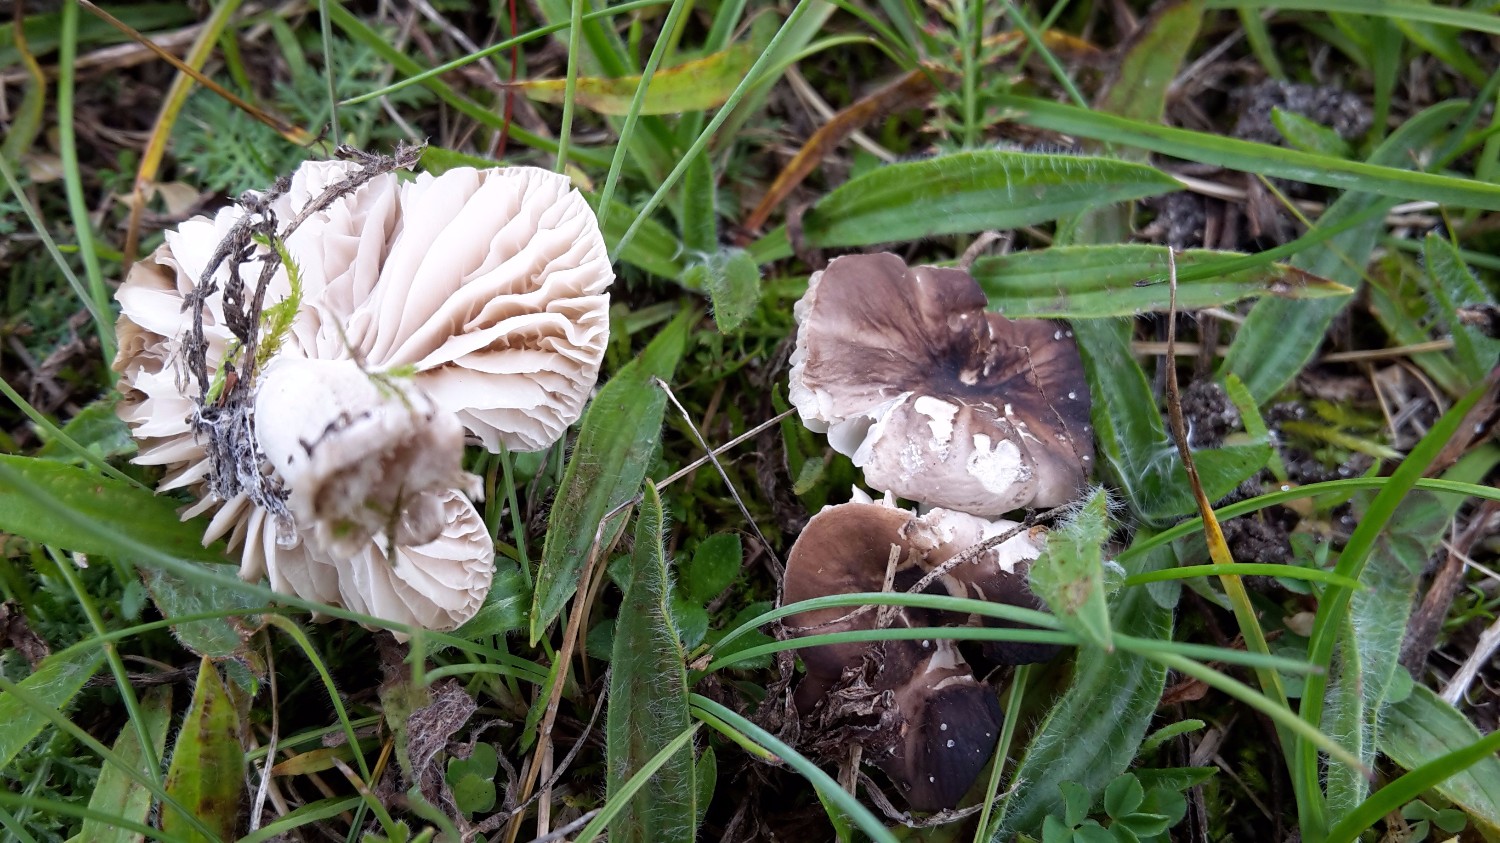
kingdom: Fungi
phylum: Basidiomycota
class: Agaricomycetes
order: Agaricales
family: Tricholomataceae
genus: Dermoloma
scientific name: Dermoloma cuneifolium
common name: eng-nonnehat
